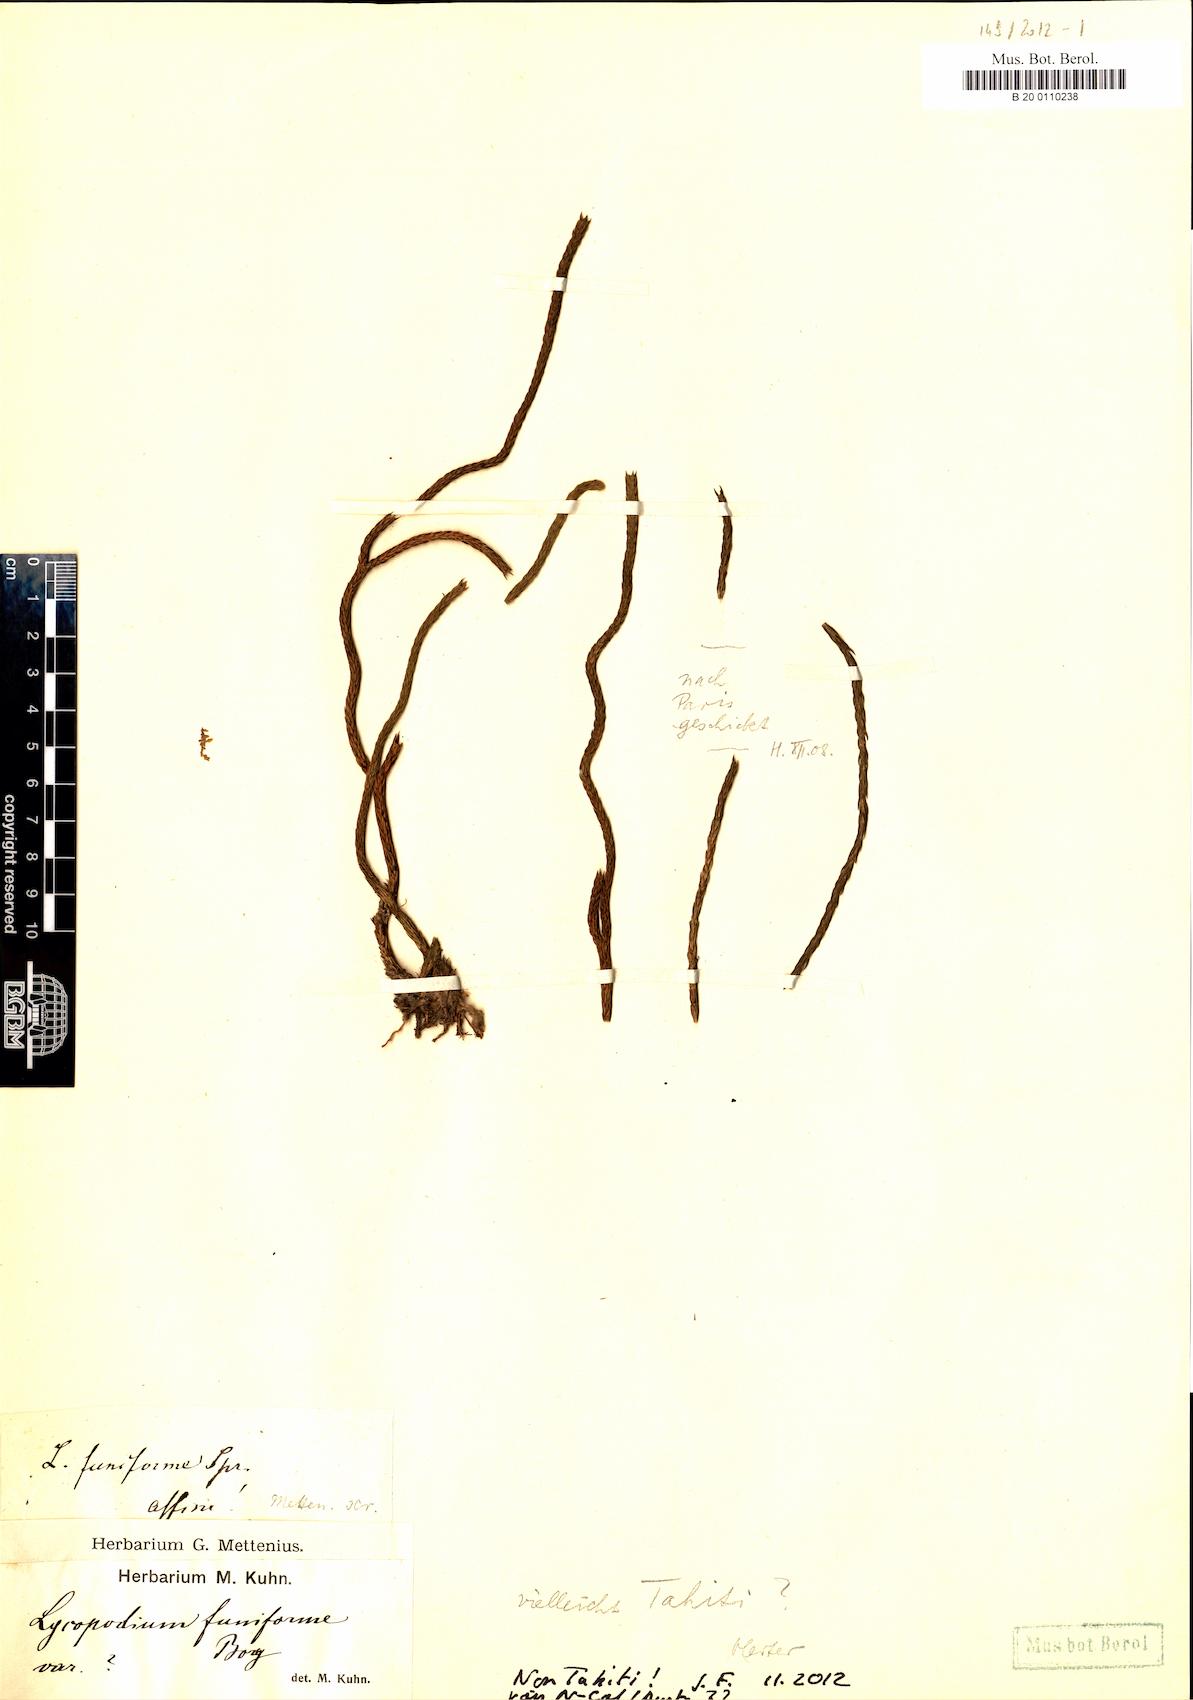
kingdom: Plantae
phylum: Tracheophyta
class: Lycopodiopsida
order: Lycopodiales
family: Lycopodiaceae
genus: Phlegmariurus
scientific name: Phlegmariurus funiformis
